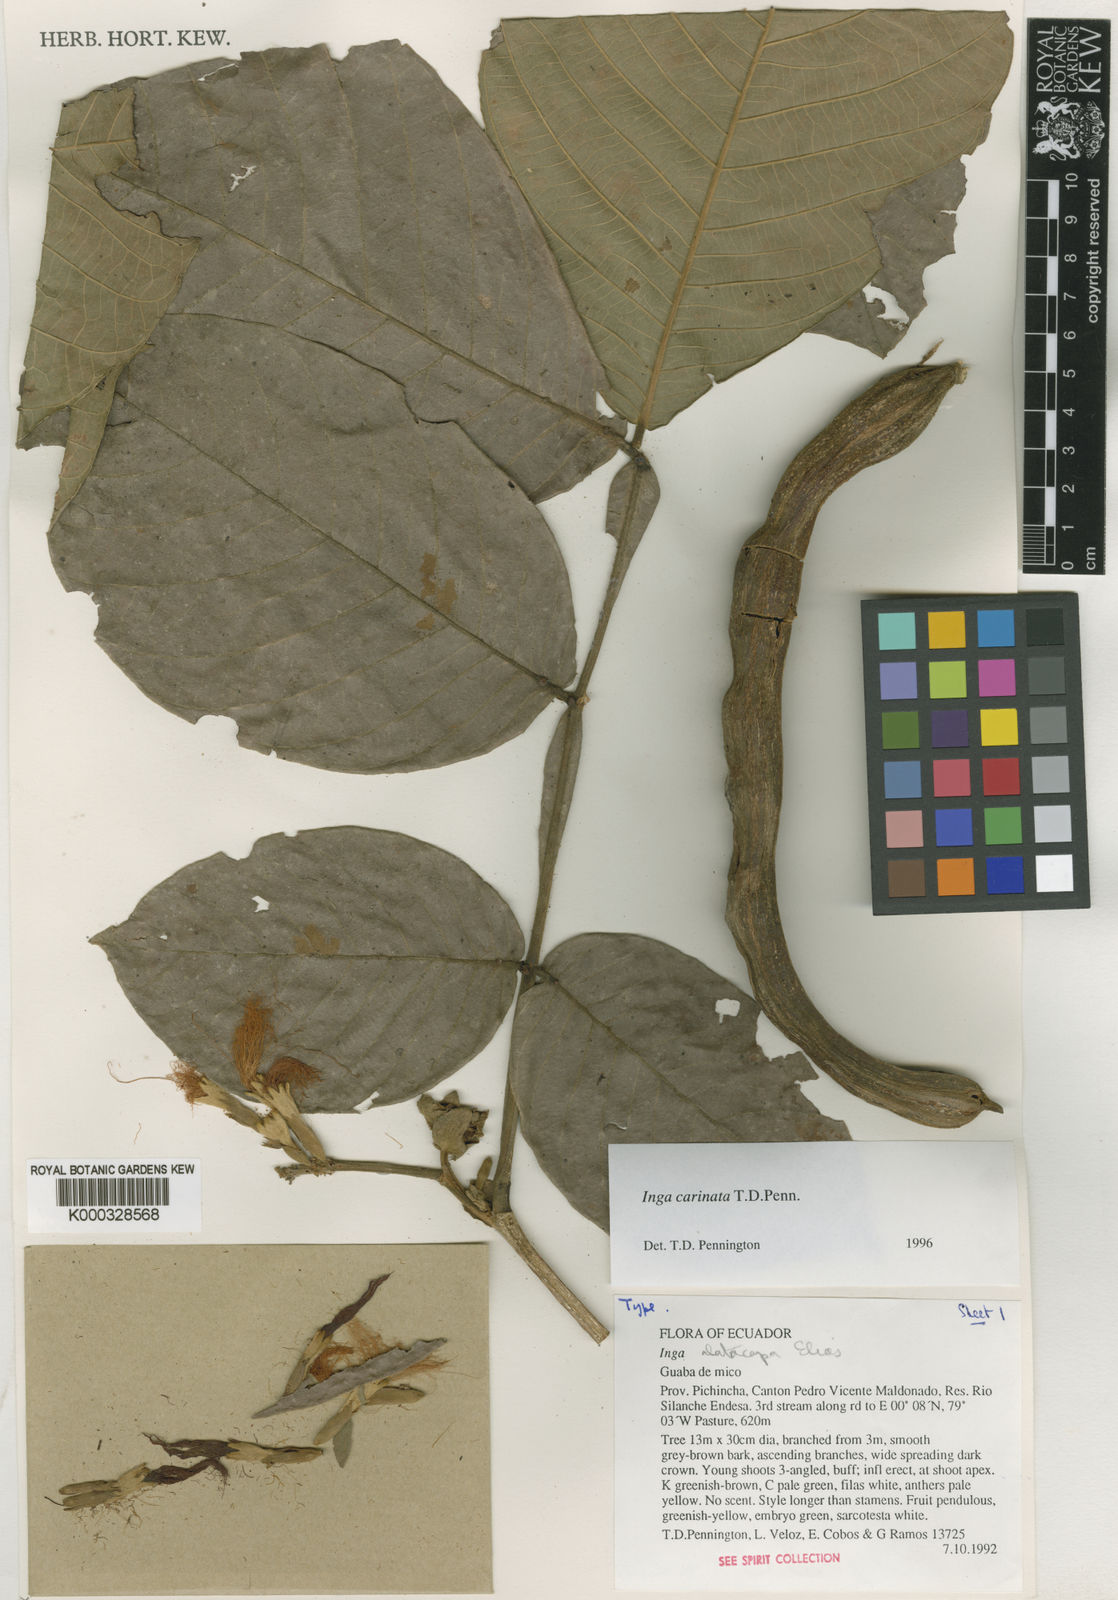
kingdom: Plantae
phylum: Tracheophyta
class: Magnoliopsida
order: Fabales
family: Fabaceae
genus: Inga
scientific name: Inga carinata
